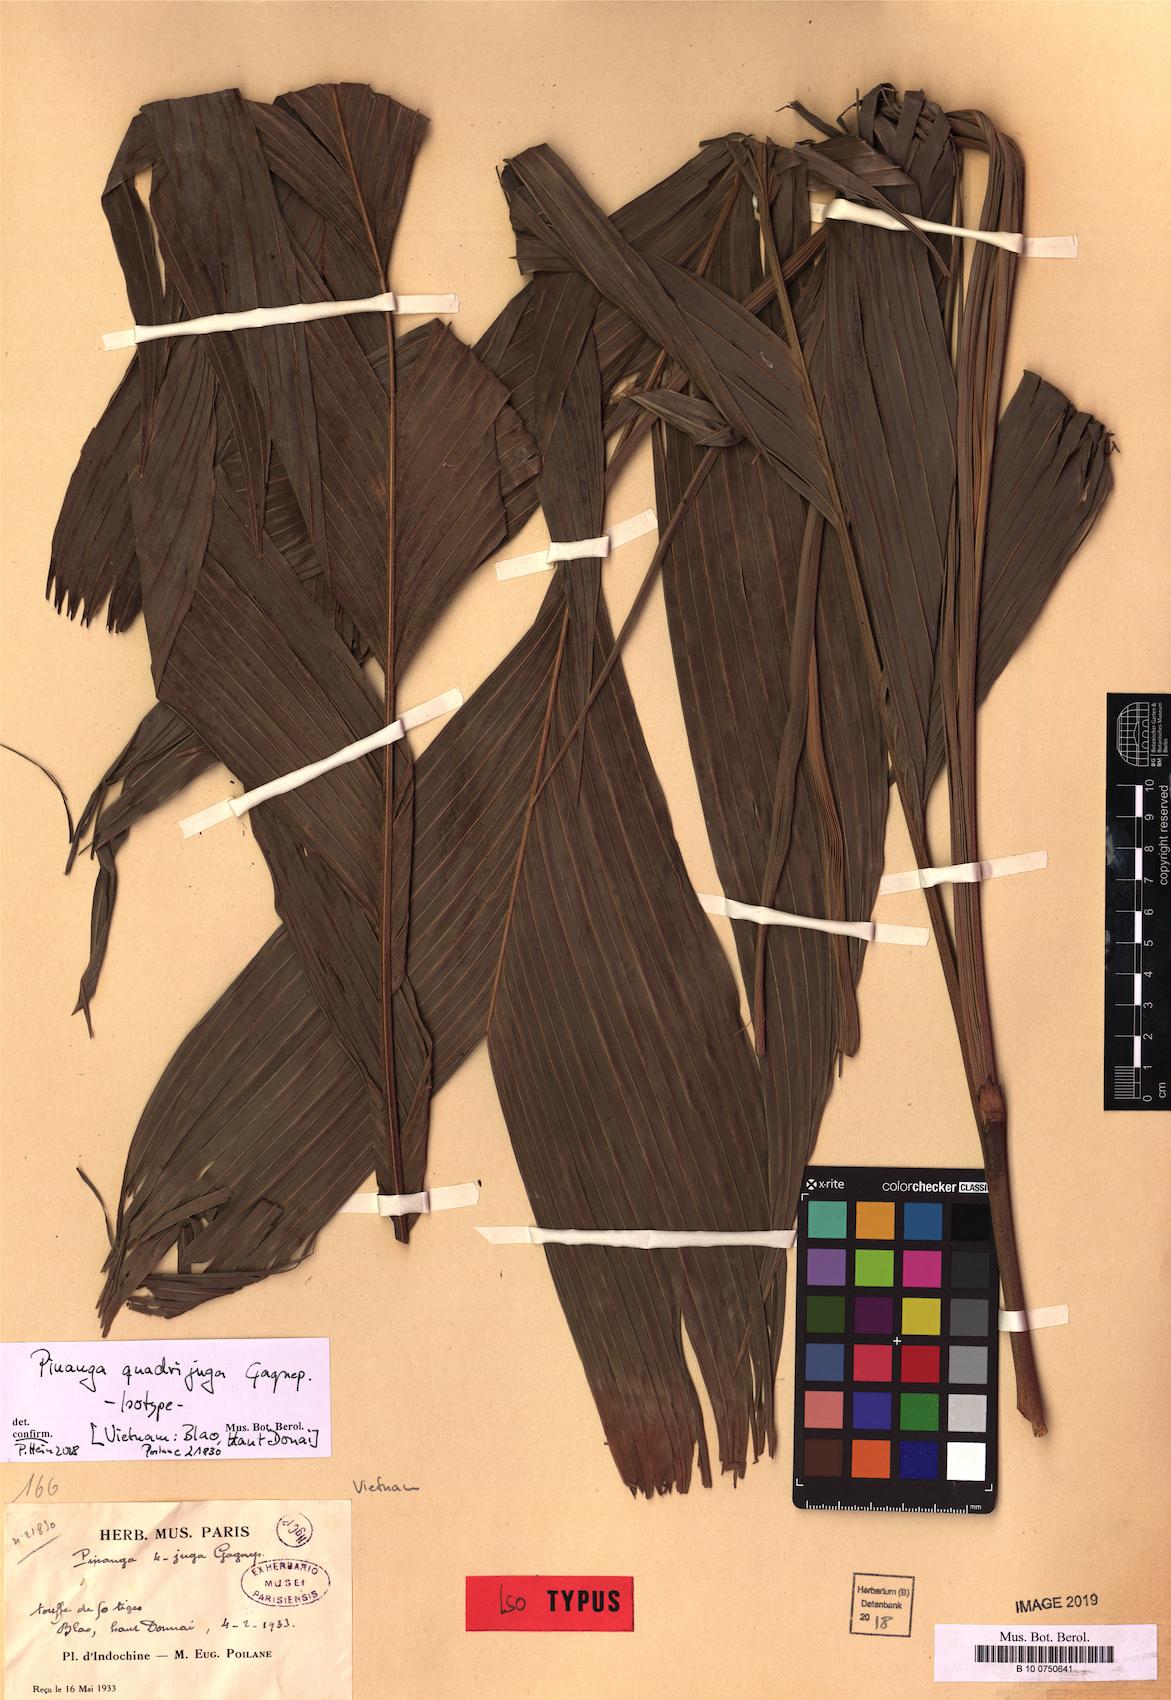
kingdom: Plantae
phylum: Tracheophyta
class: Liliopsida
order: Arecales
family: Arecaceae
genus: Pinanga
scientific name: Pinanga quadrijuga
